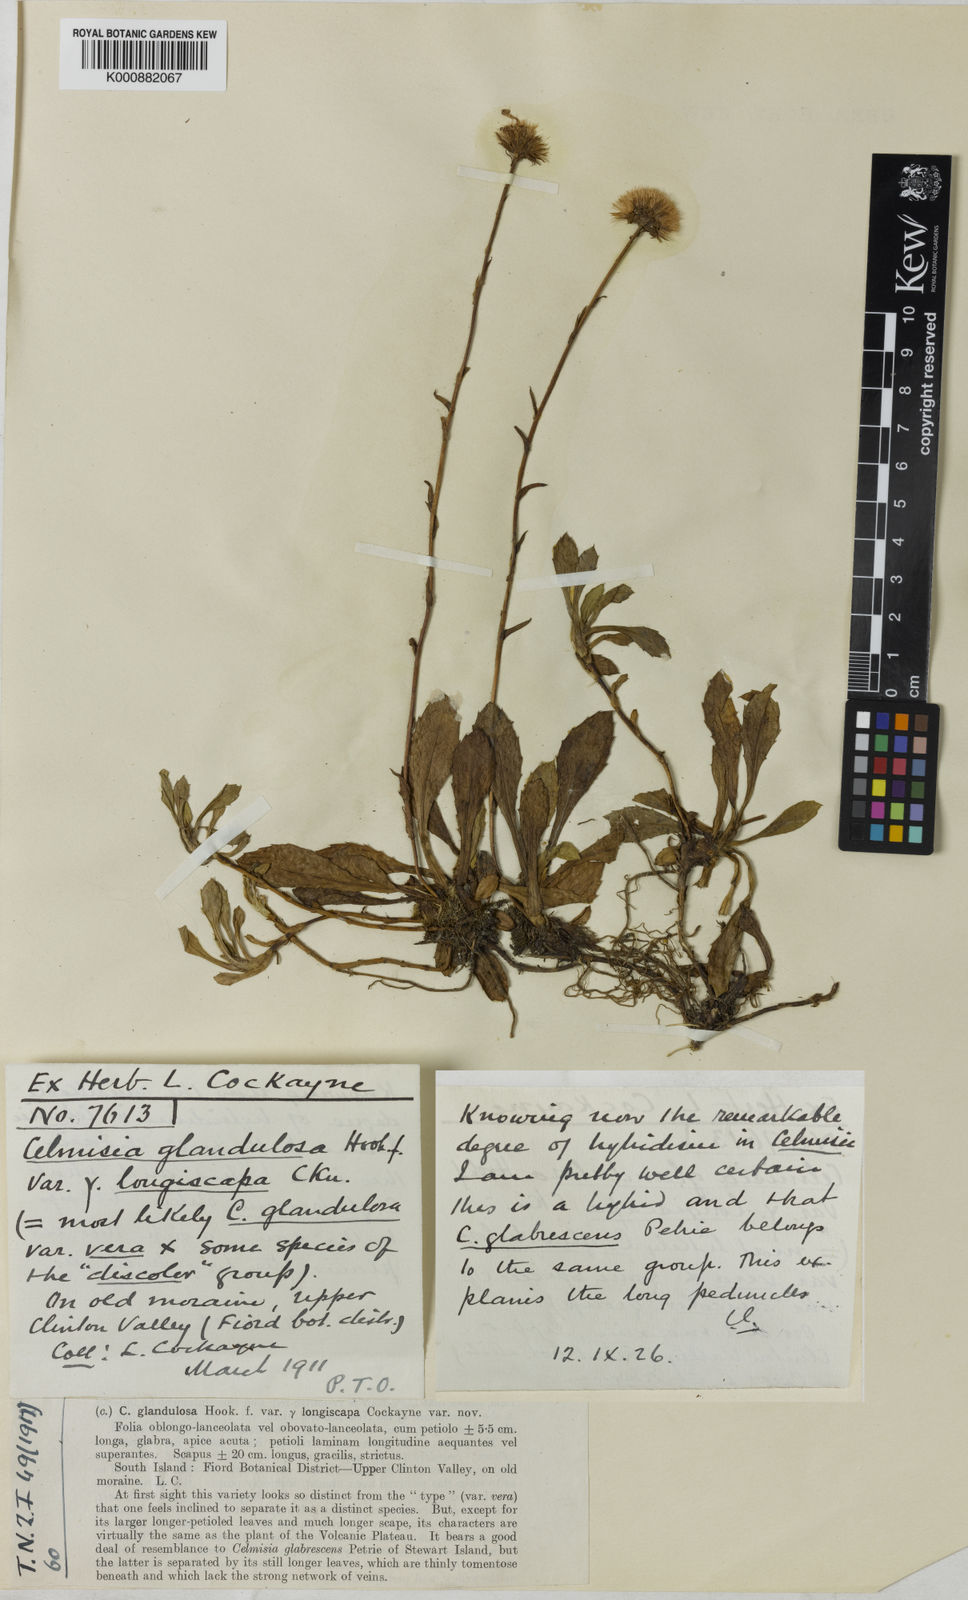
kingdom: Plantae
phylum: Tracheophyta
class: Magnoliopsida
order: Asterales
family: Asteraceae
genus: Celmisia
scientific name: Celmisia glandulosa
